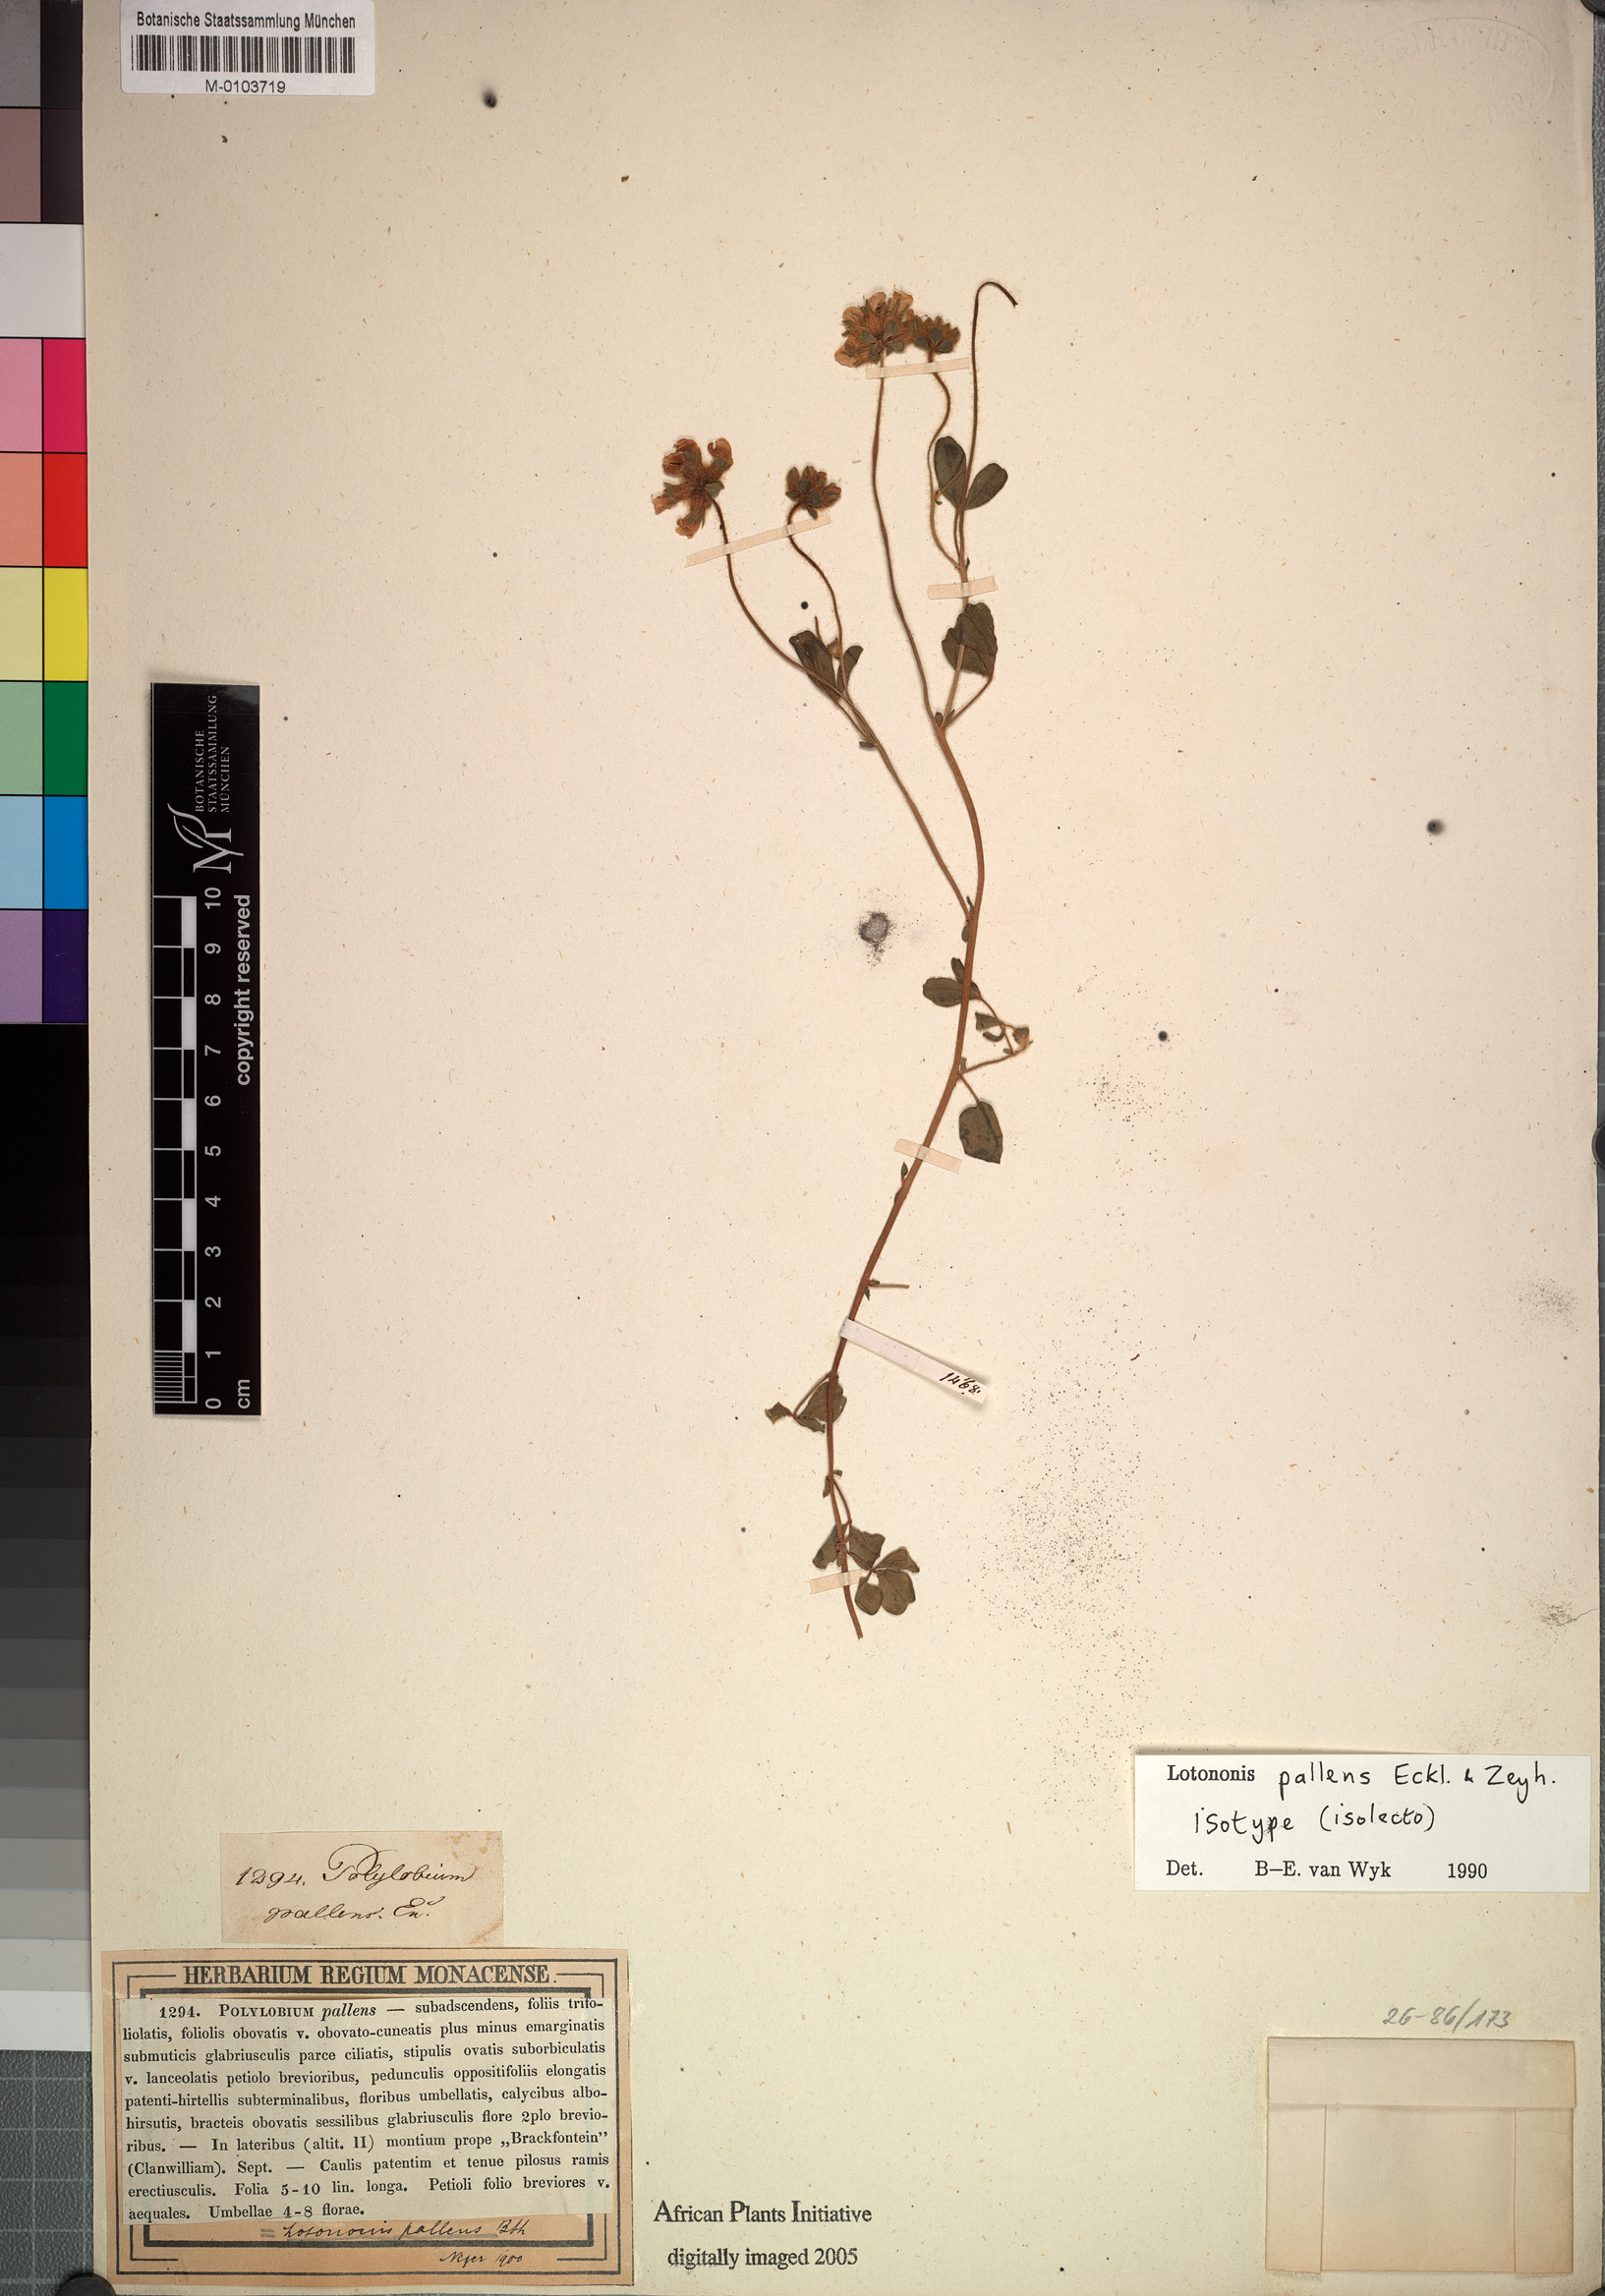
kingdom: Plantae
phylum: Tracheophyta
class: Magnoliopsida
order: Fabales
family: Fabaceae
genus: Lotononis
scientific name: Lotononis pallens
